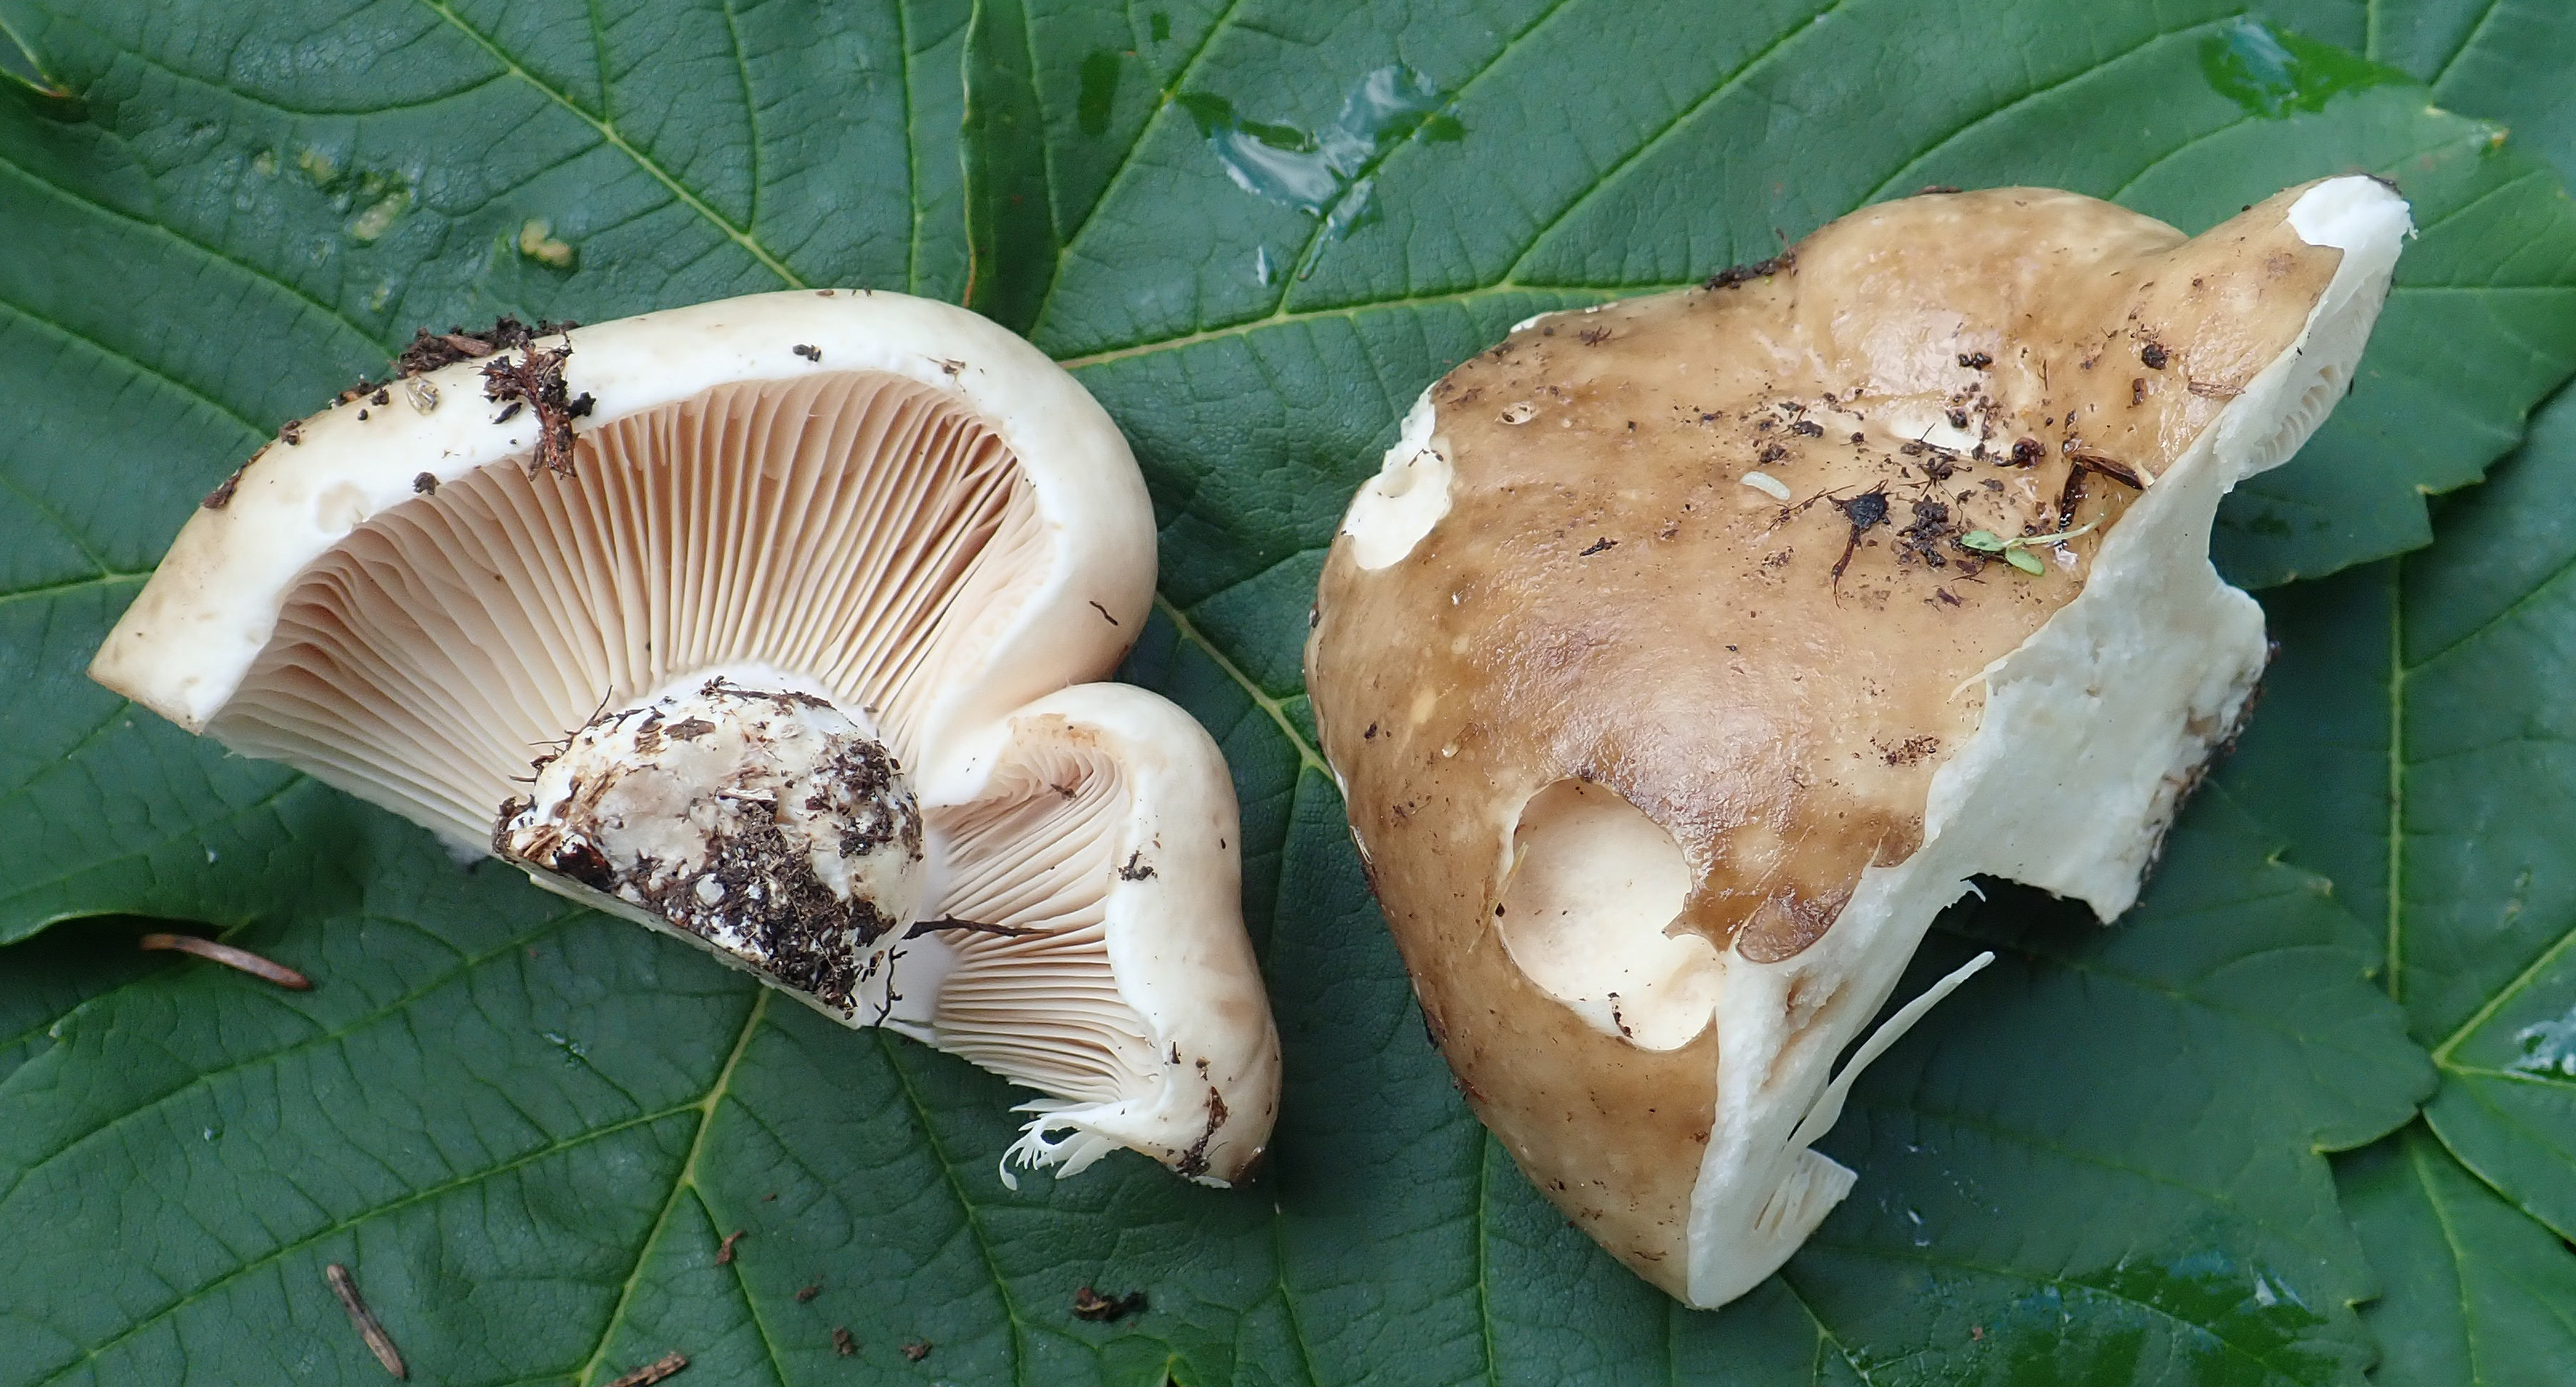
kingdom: Fungi
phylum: Basidiomycota
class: Agaricomycetes
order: Russulales
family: Russulaceae
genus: Russula
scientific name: Russula adusta
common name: Winecork brittlegill
